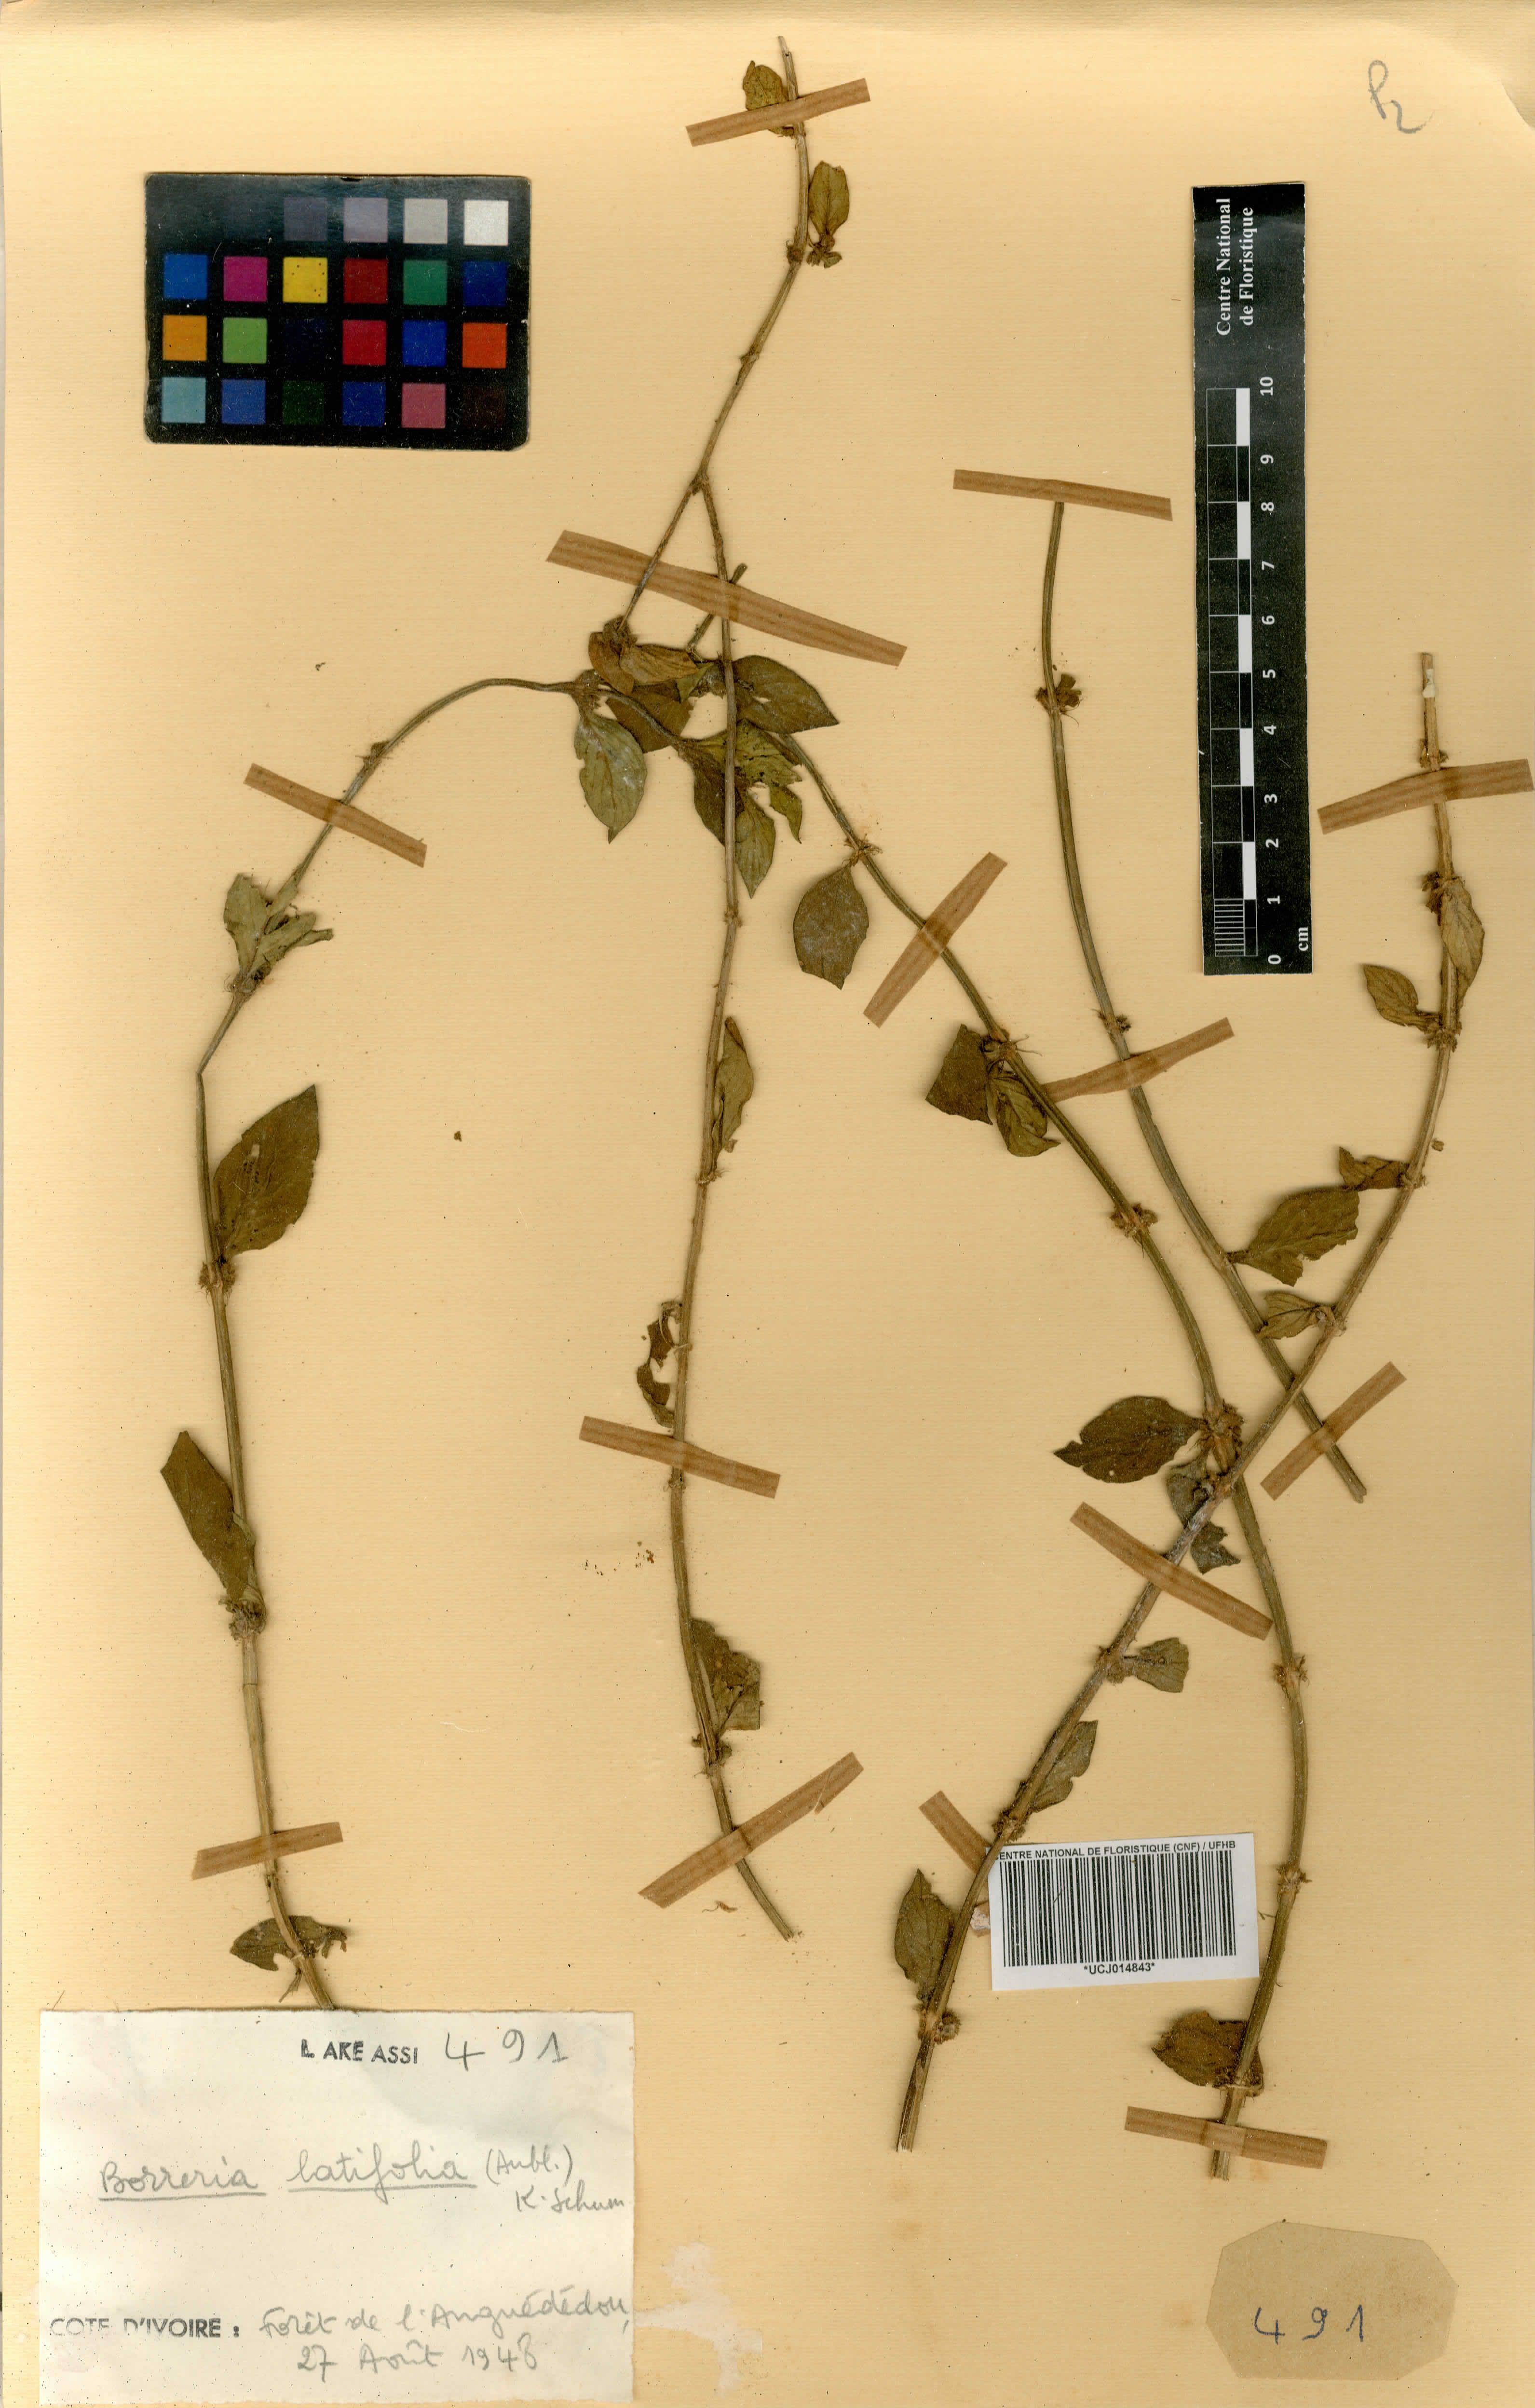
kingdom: Plantae
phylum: Tracheophyta
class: Magnoliopsida
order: Gentianales
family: Rubiaceae
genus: Spermacoce
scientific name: Spermacoce latifolia
